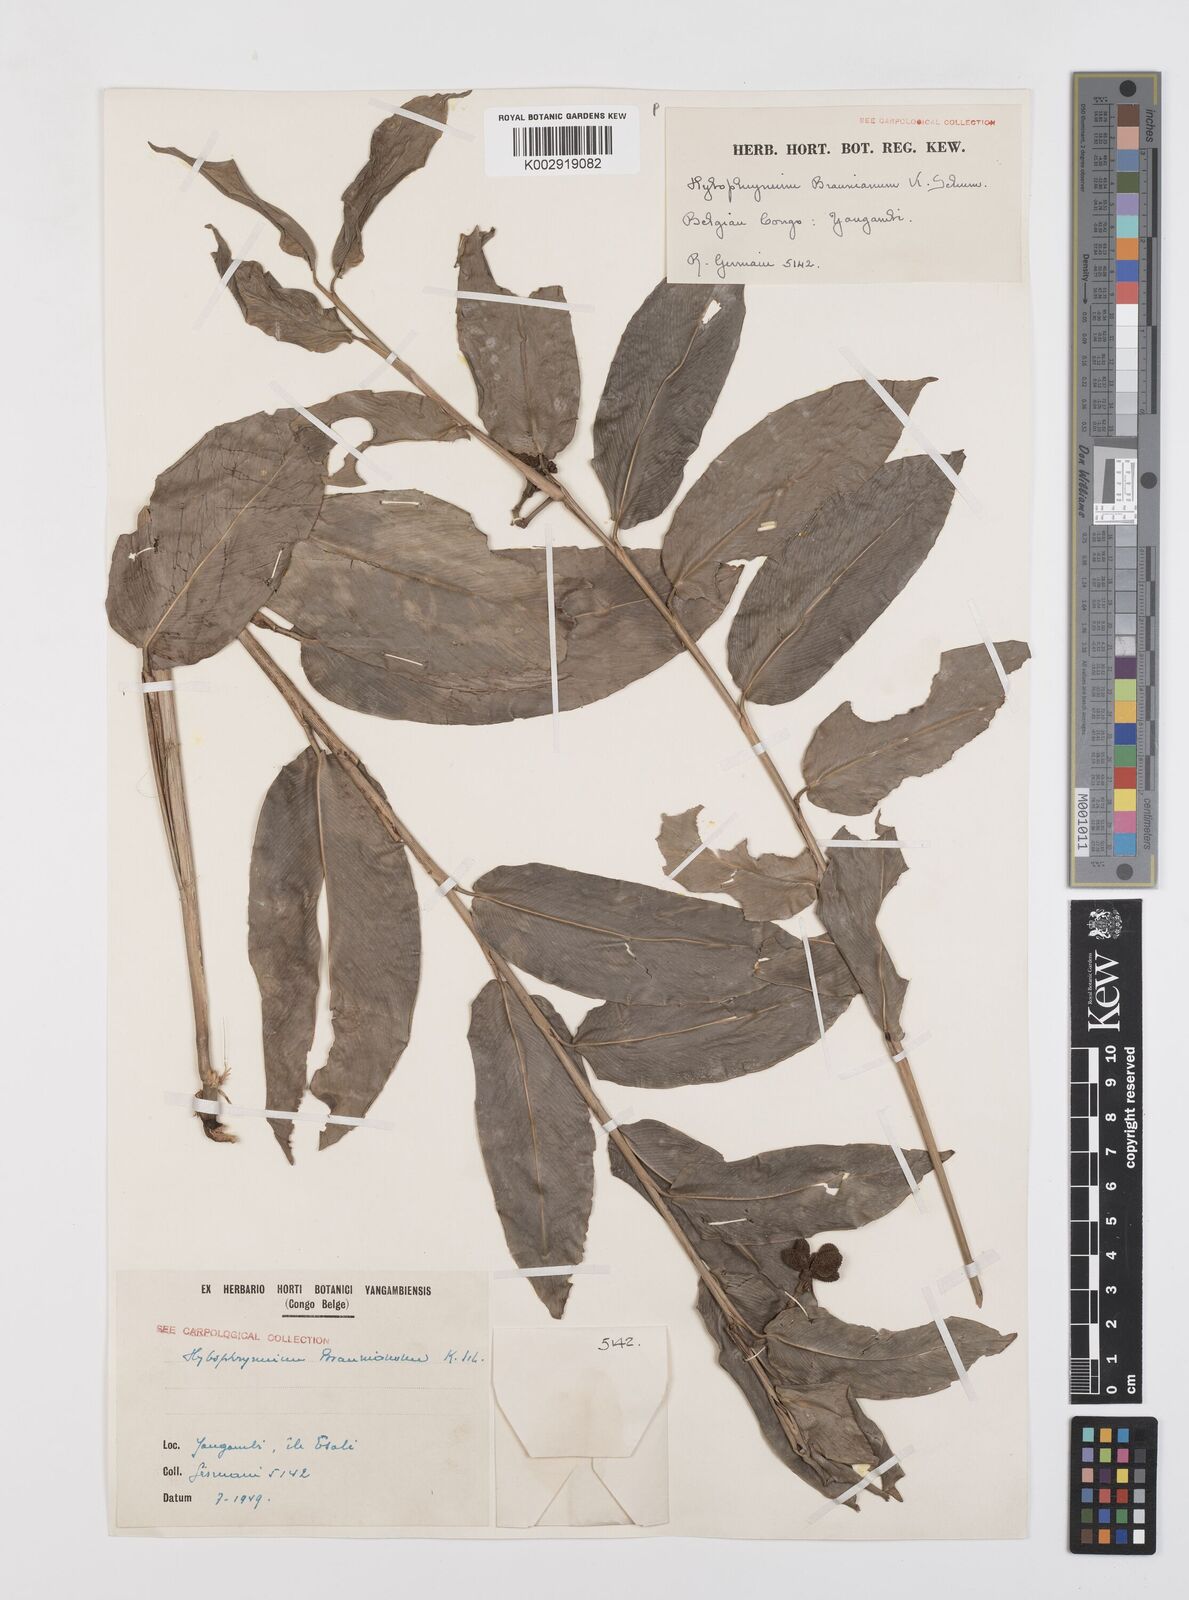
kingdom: Plantae
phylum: Tracheophyta
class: Liliopsida
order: Zingiberales
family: Marantaceae
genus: Trachyphrynium
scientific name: Trachyphrynium braunianum
